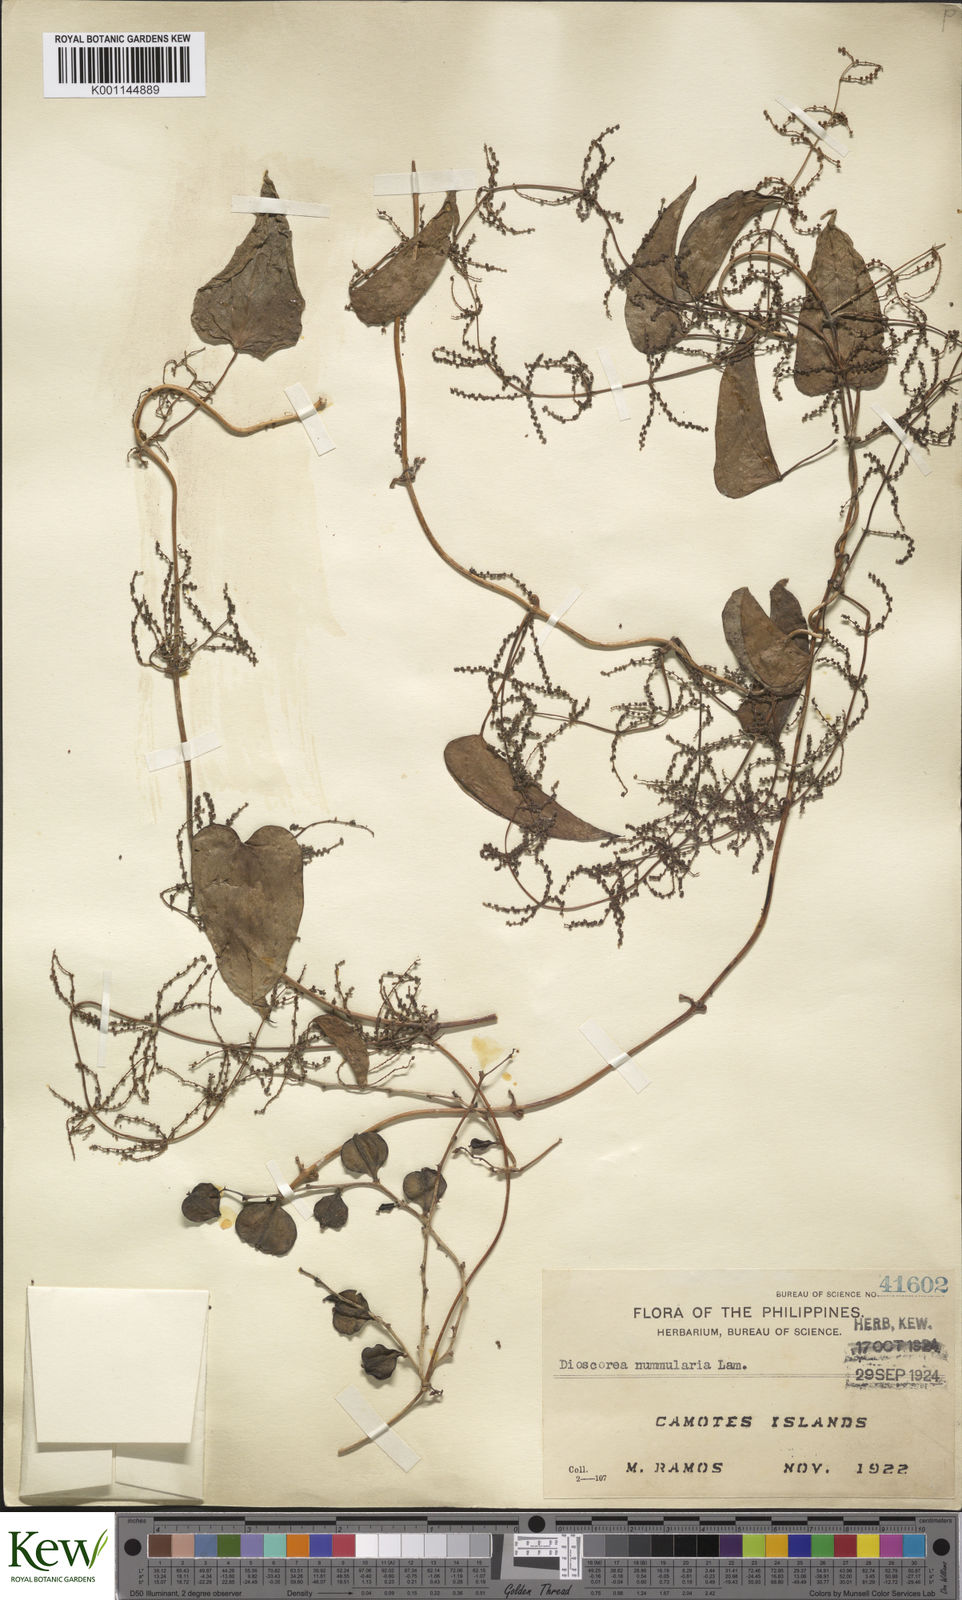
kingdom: Plantae
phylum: Tracheophyta
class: Liliopsida
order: Dioscoreales
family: Dioscoreaceae
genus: Dioscorea
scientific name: Dioscorea nummularia
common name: Pacific yam
